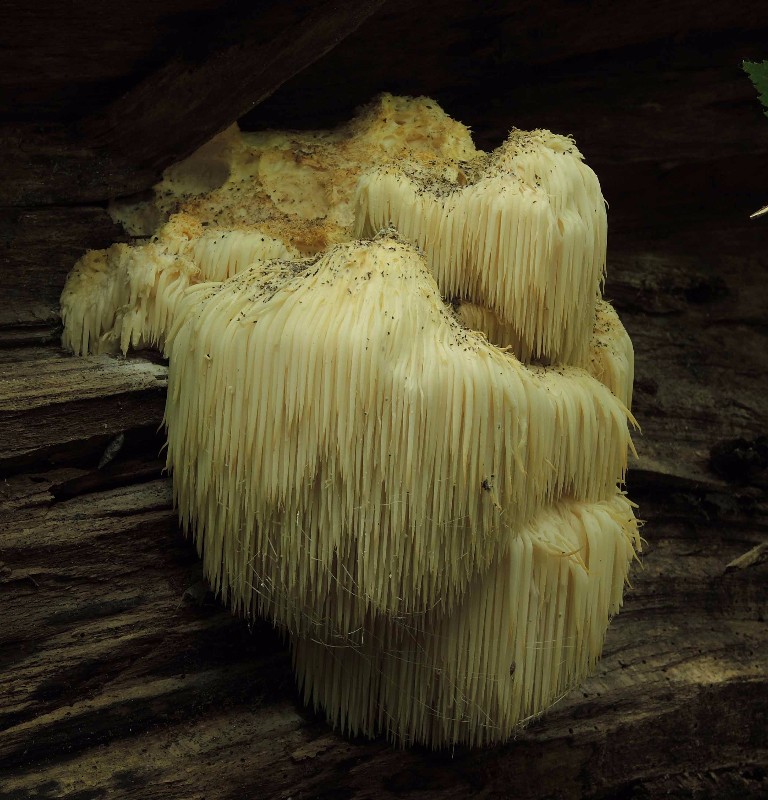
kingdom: Fungi
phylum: Basidiomycota
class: Agaricomycetes
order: Russulales
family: Hericiaceae
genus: Hericium
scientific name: Hericium erinaceus
